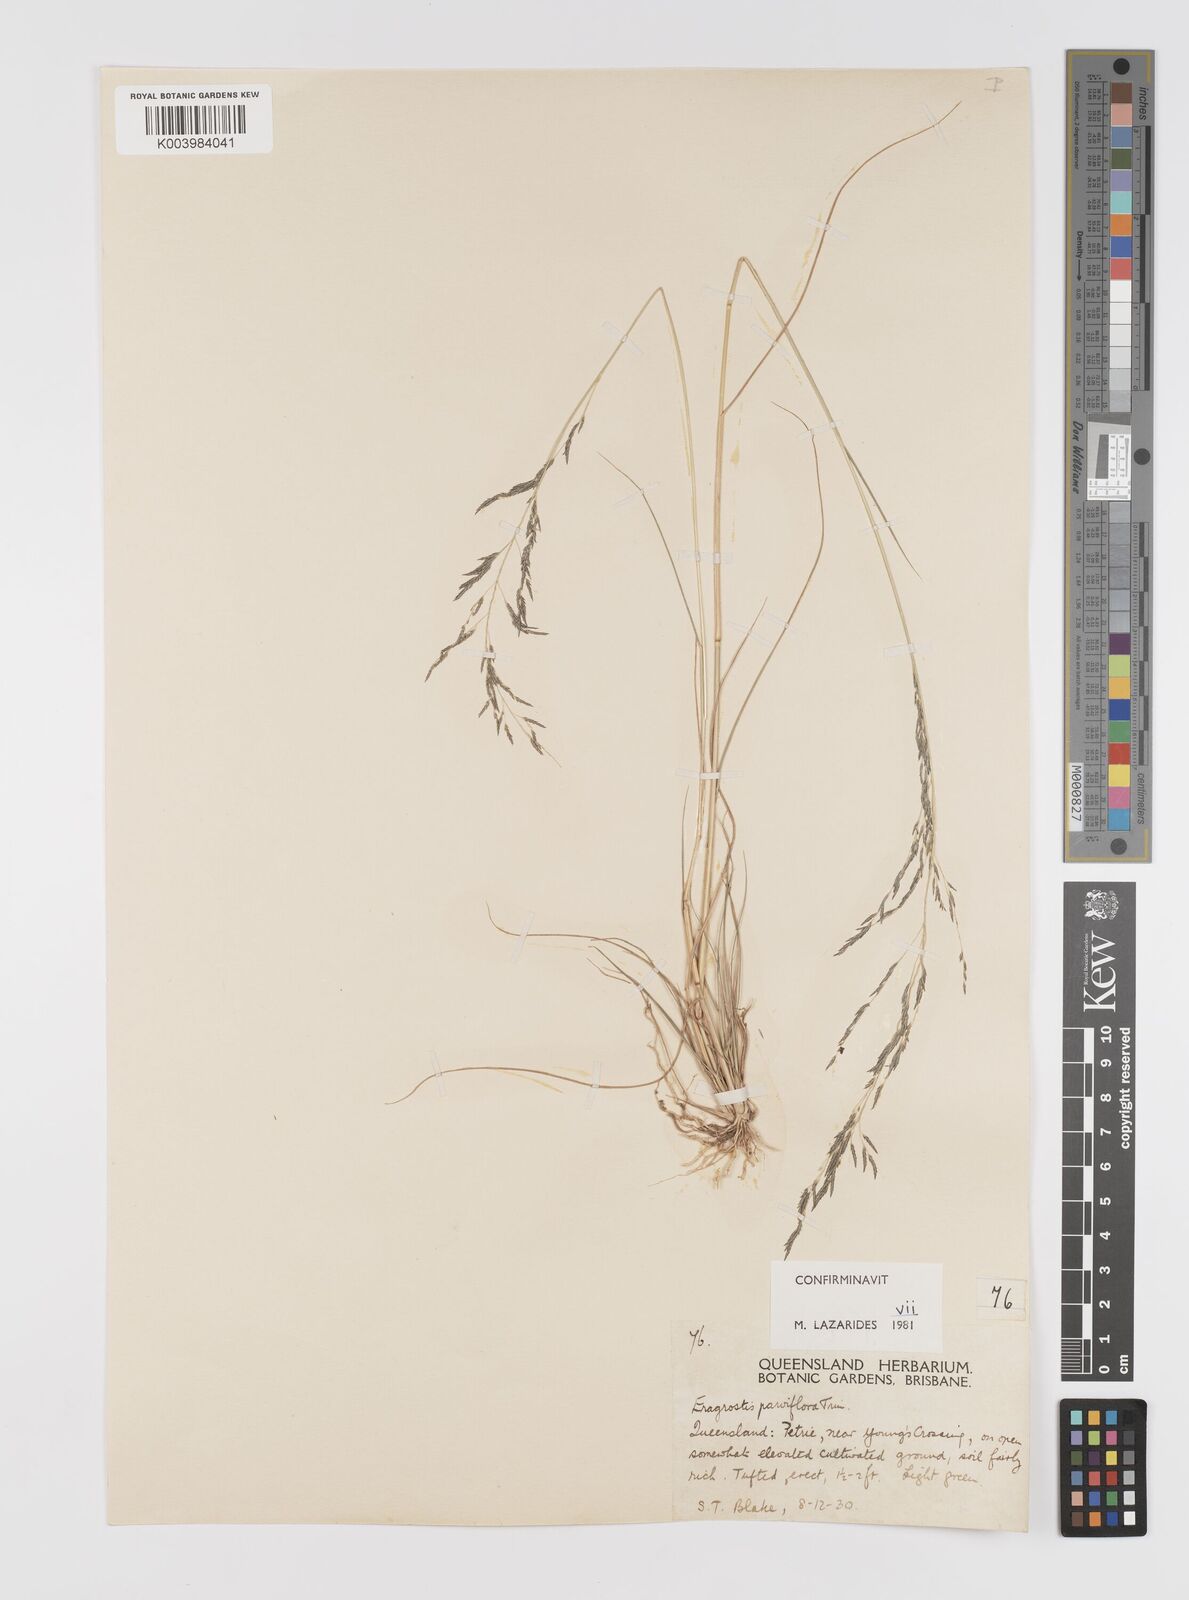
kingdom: Plantae
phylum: Tracheophyta
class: Liliopsida
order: Poales
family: Poaceae
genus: Eragrostis
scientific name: Eragrostis parviflora
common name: Weeping love-grass
